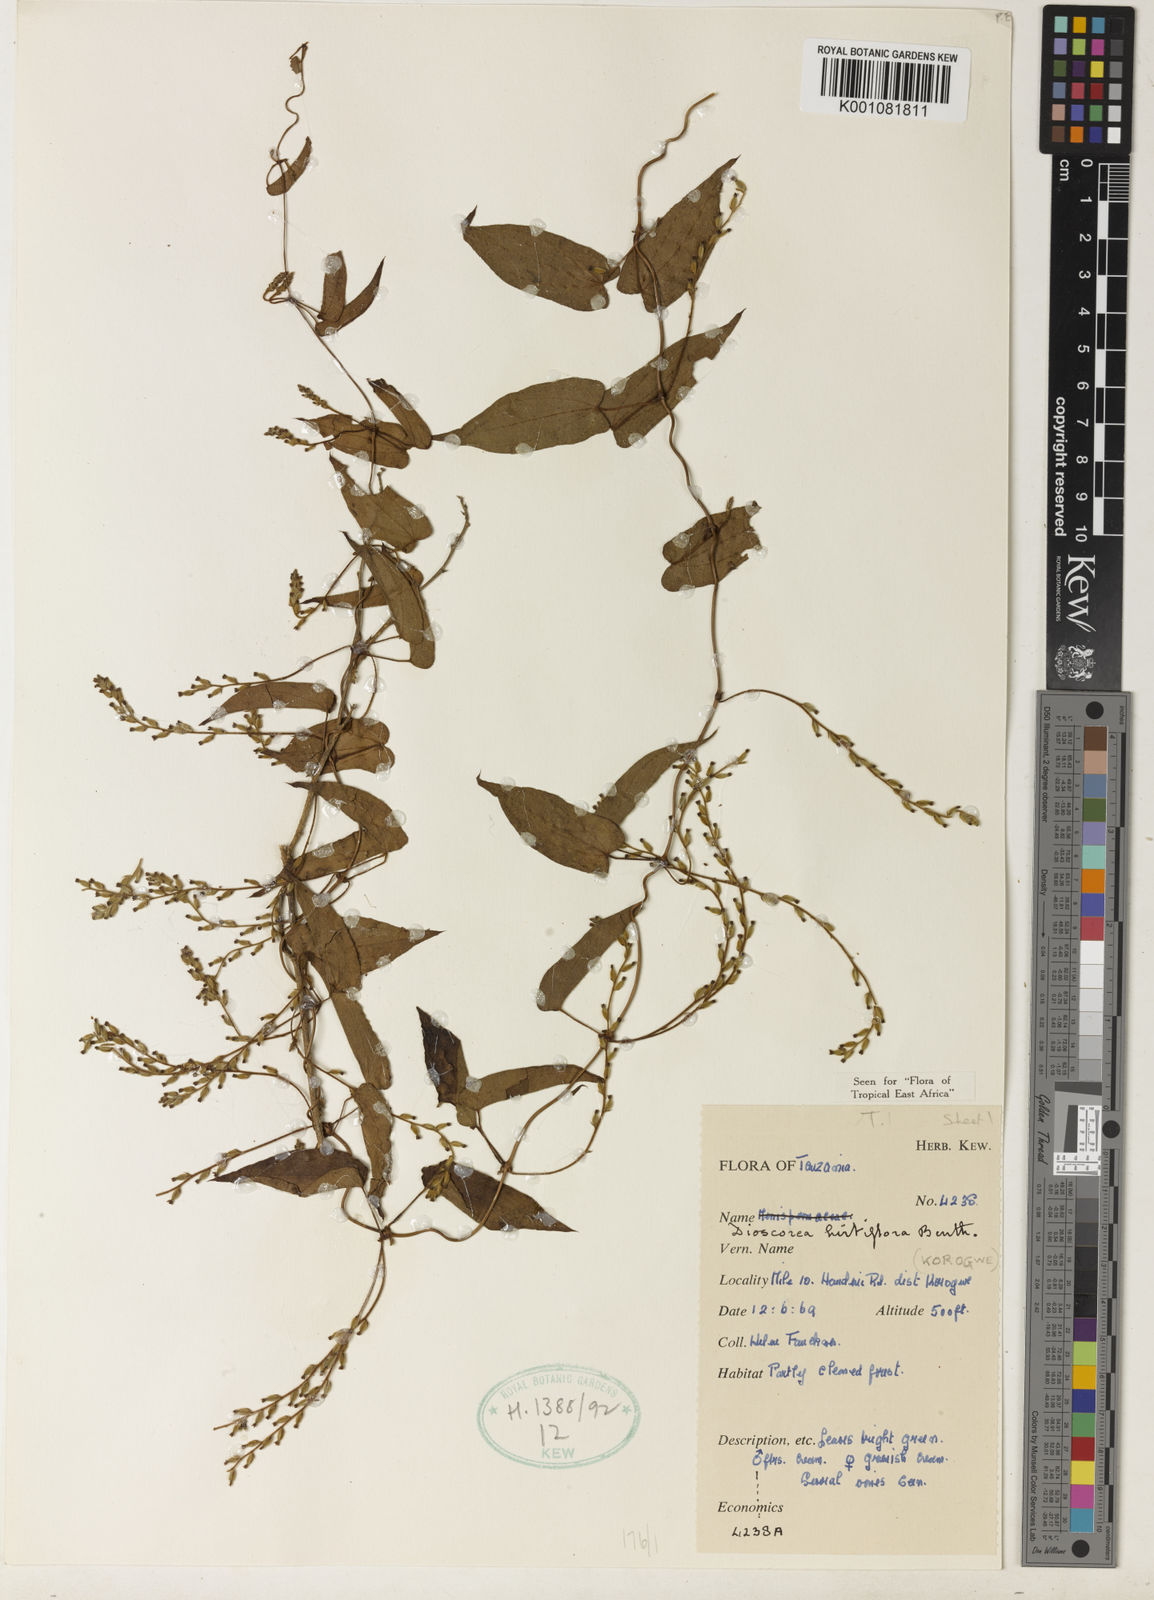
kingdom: Plantae
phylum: Tracheophyta
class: Liliopsida
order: Dioscoreales
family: Dioscoreaceae
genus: Dioscorea
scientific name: Dioscorea hirtiflora
